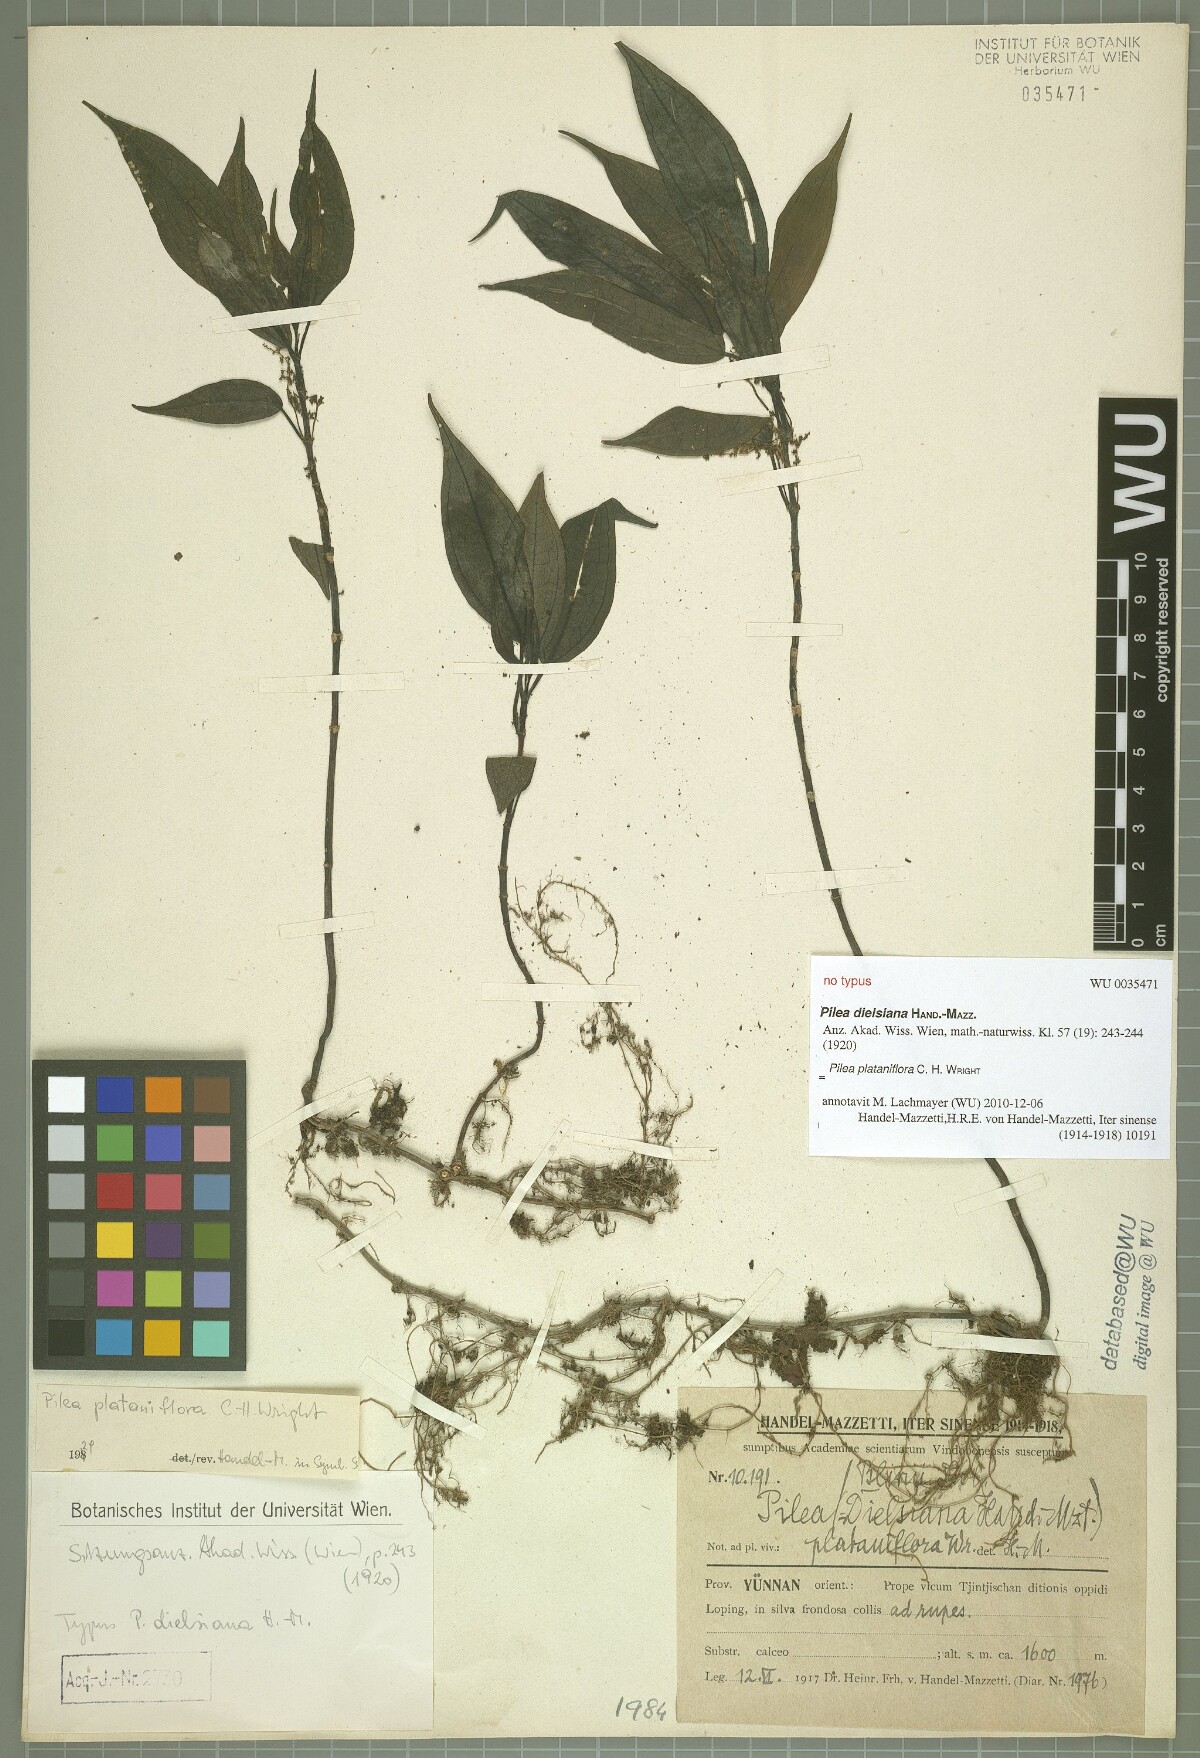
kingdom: Plantae
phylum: Tracheophyta
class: Magnoliopsida
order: Rosales
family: Urticaceae
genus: Pilea
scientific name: Pilea plataniflora
